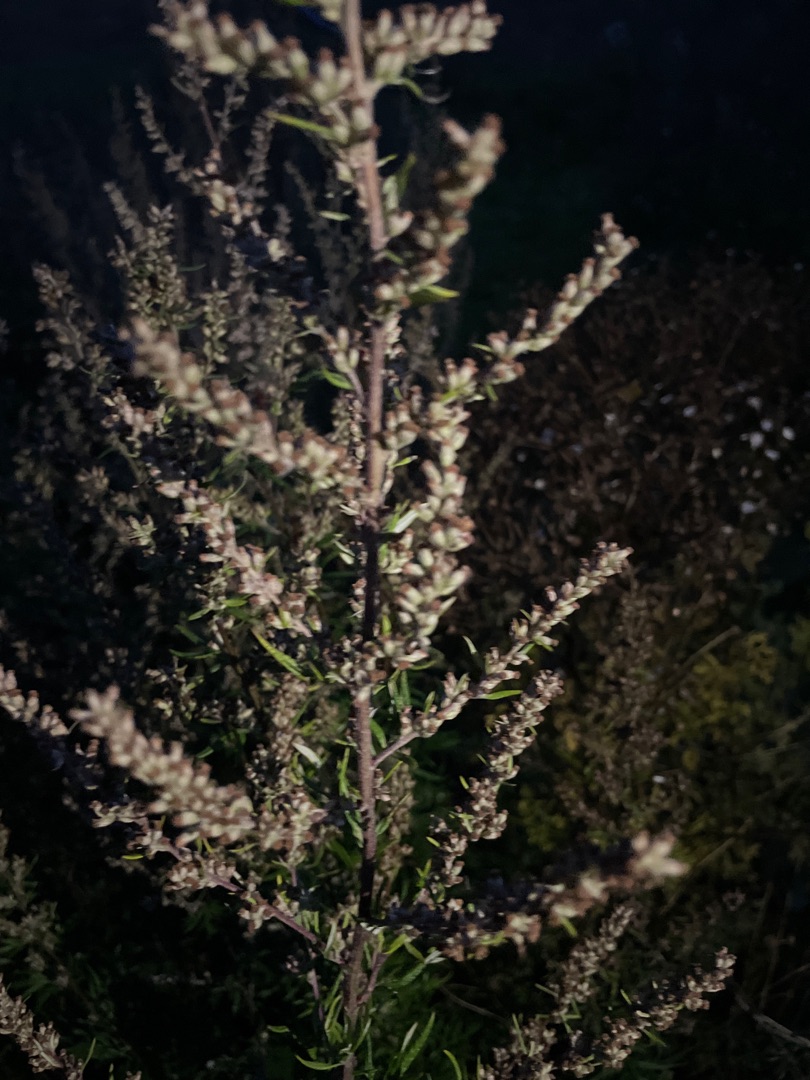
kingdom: Plantae
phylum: Tracheophyta
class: Magnoliopsida
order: Asterales
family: Asteraceae
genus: Artemisia
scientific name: Artemisia vulgaris
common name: Grå-bynke
